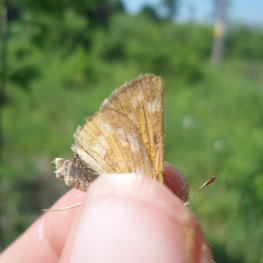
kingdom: Animalia
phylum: Arthropoda
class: Insecta
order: Lepidoptera
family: Hesperiidae
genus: Hesperia
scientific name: Hesperia sassacus
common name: Sassacus Skipper
